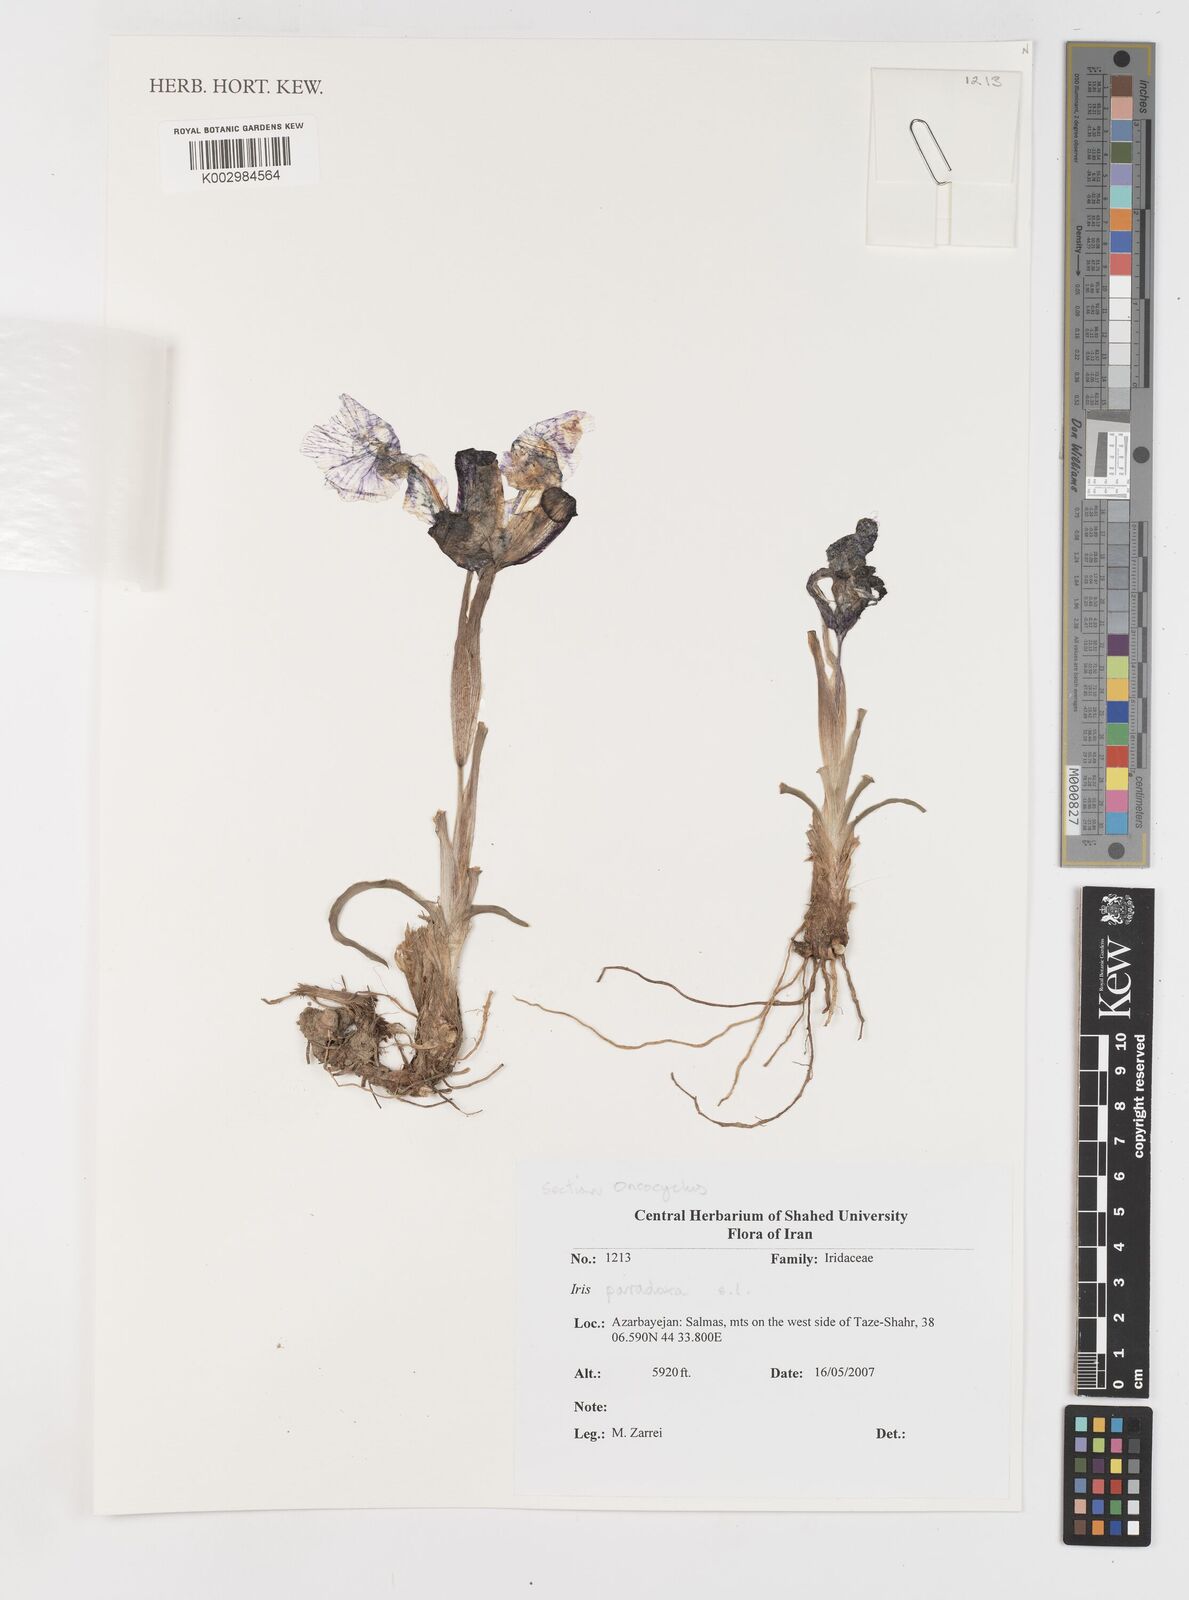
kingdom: Plantae
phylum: Tracheophyta
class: Liliopsida
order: Asparagales
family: Iridaceae
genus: Iris
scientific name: Iris paradoxa
